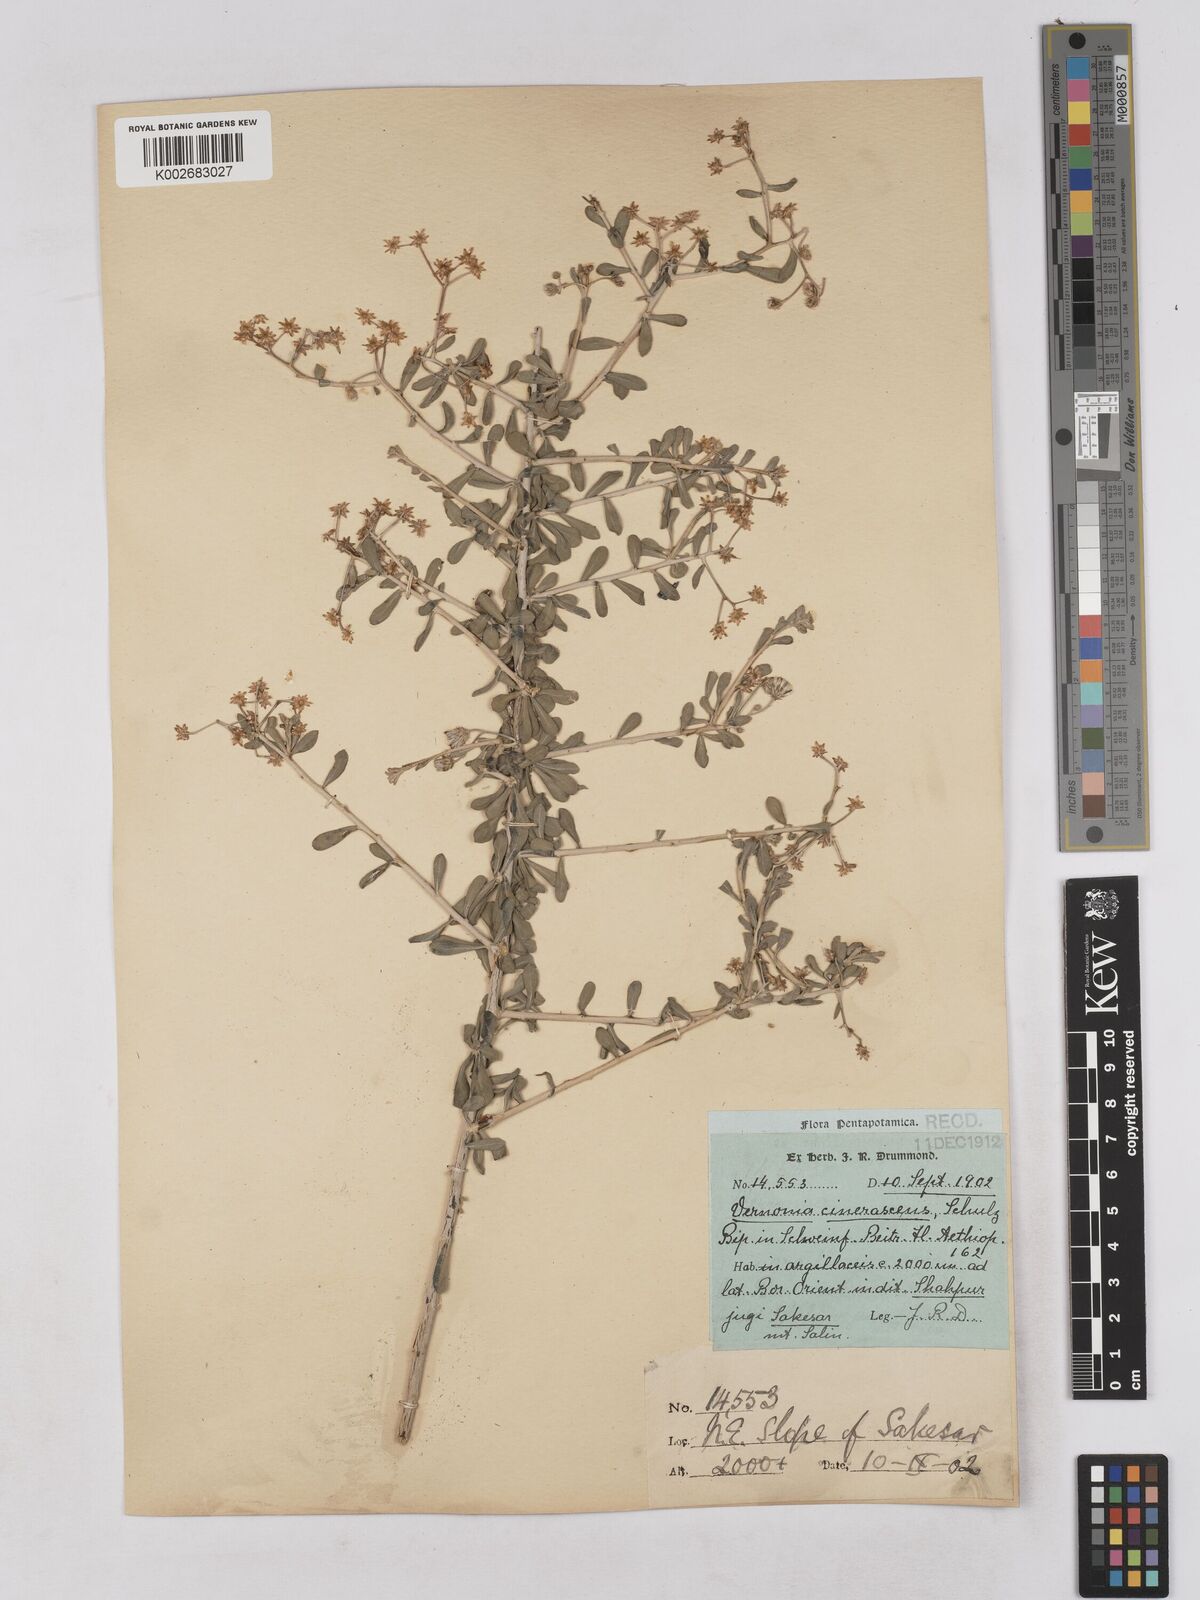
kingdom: Plantae
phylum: Tracheophyta
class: Magnoliopsida
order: Asterales
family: Asteraceae
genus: Orbivestus
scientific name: Orbivestus cinerascens
